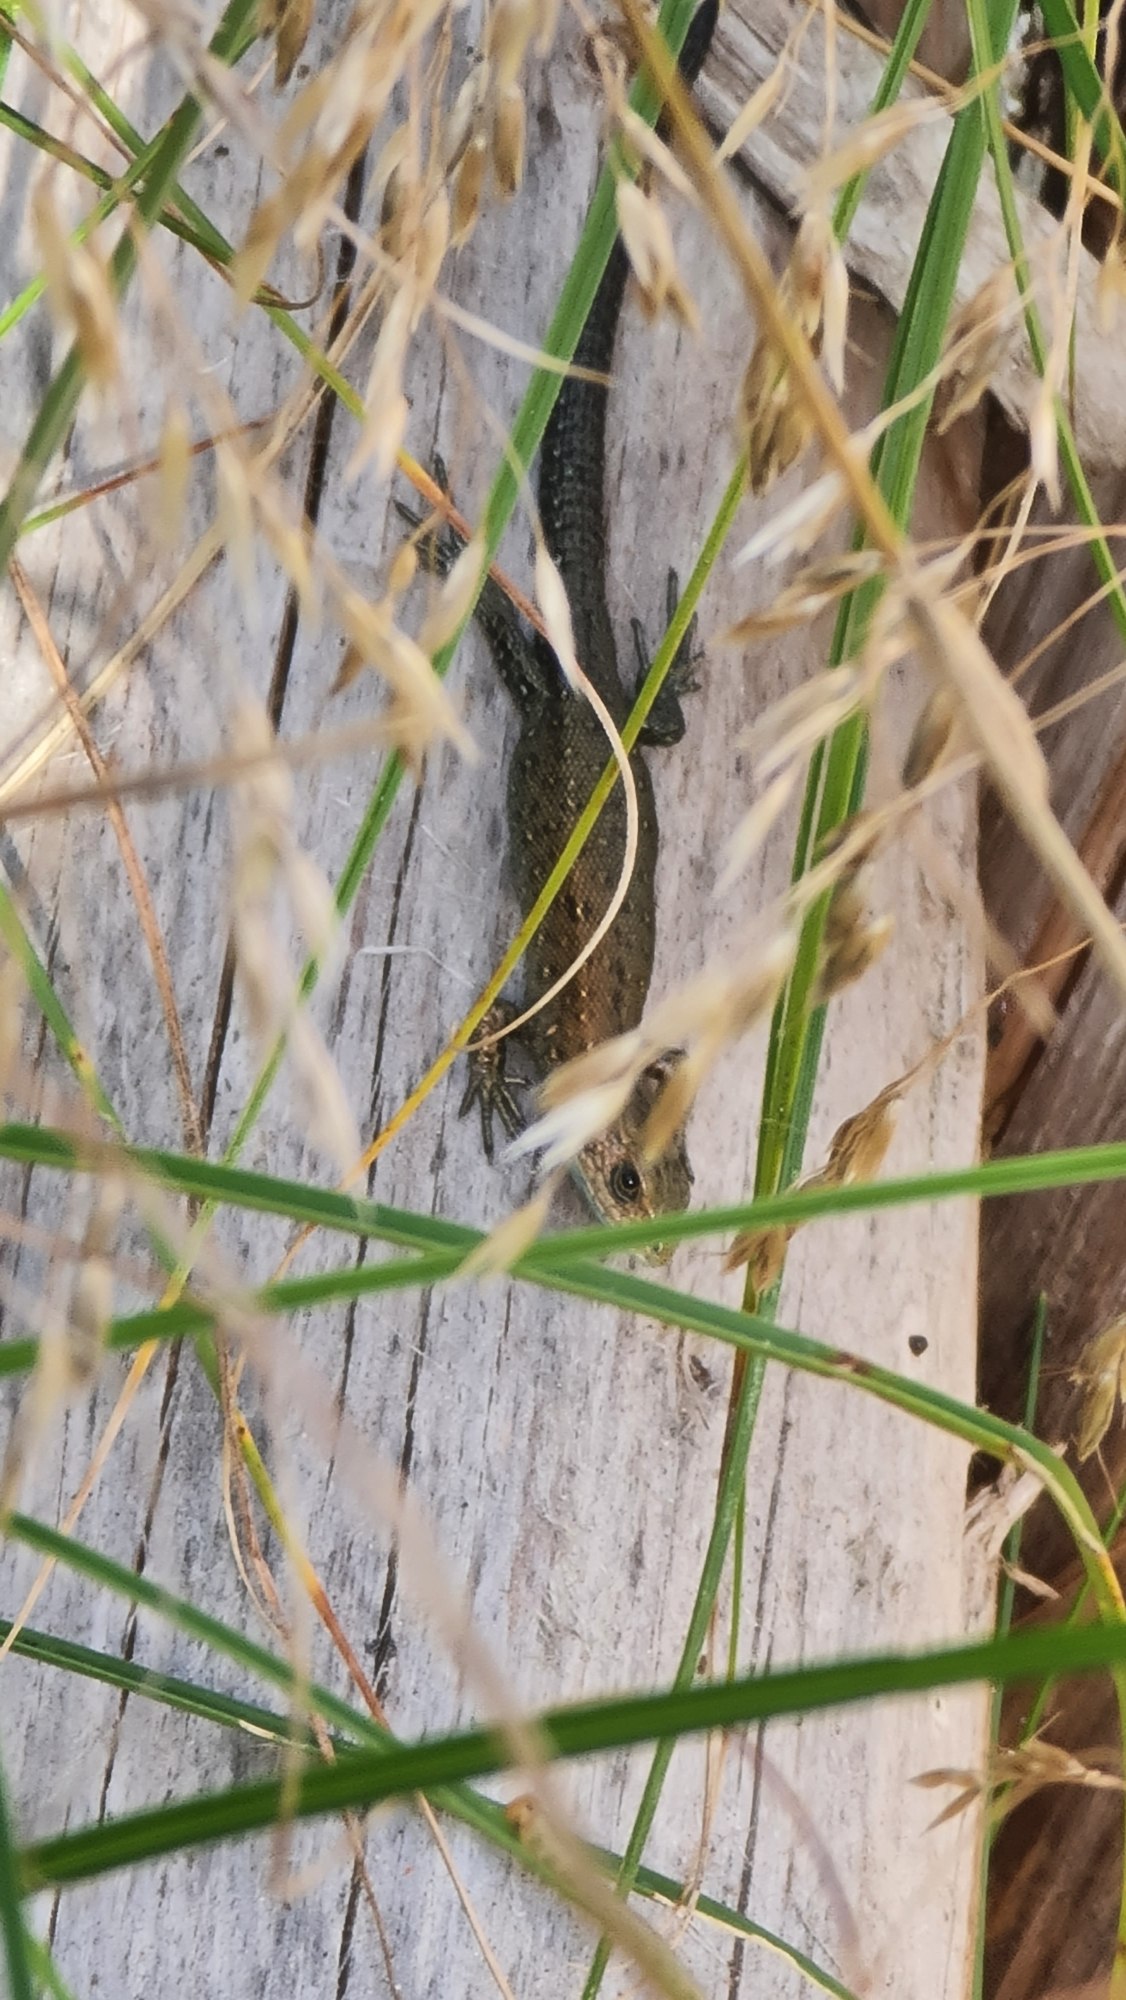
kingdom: Animalia
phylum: Chordata
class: Squamata
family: Lacertidae
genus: Zootoca
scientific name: Zootoca vivipara
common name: Skovfirben
